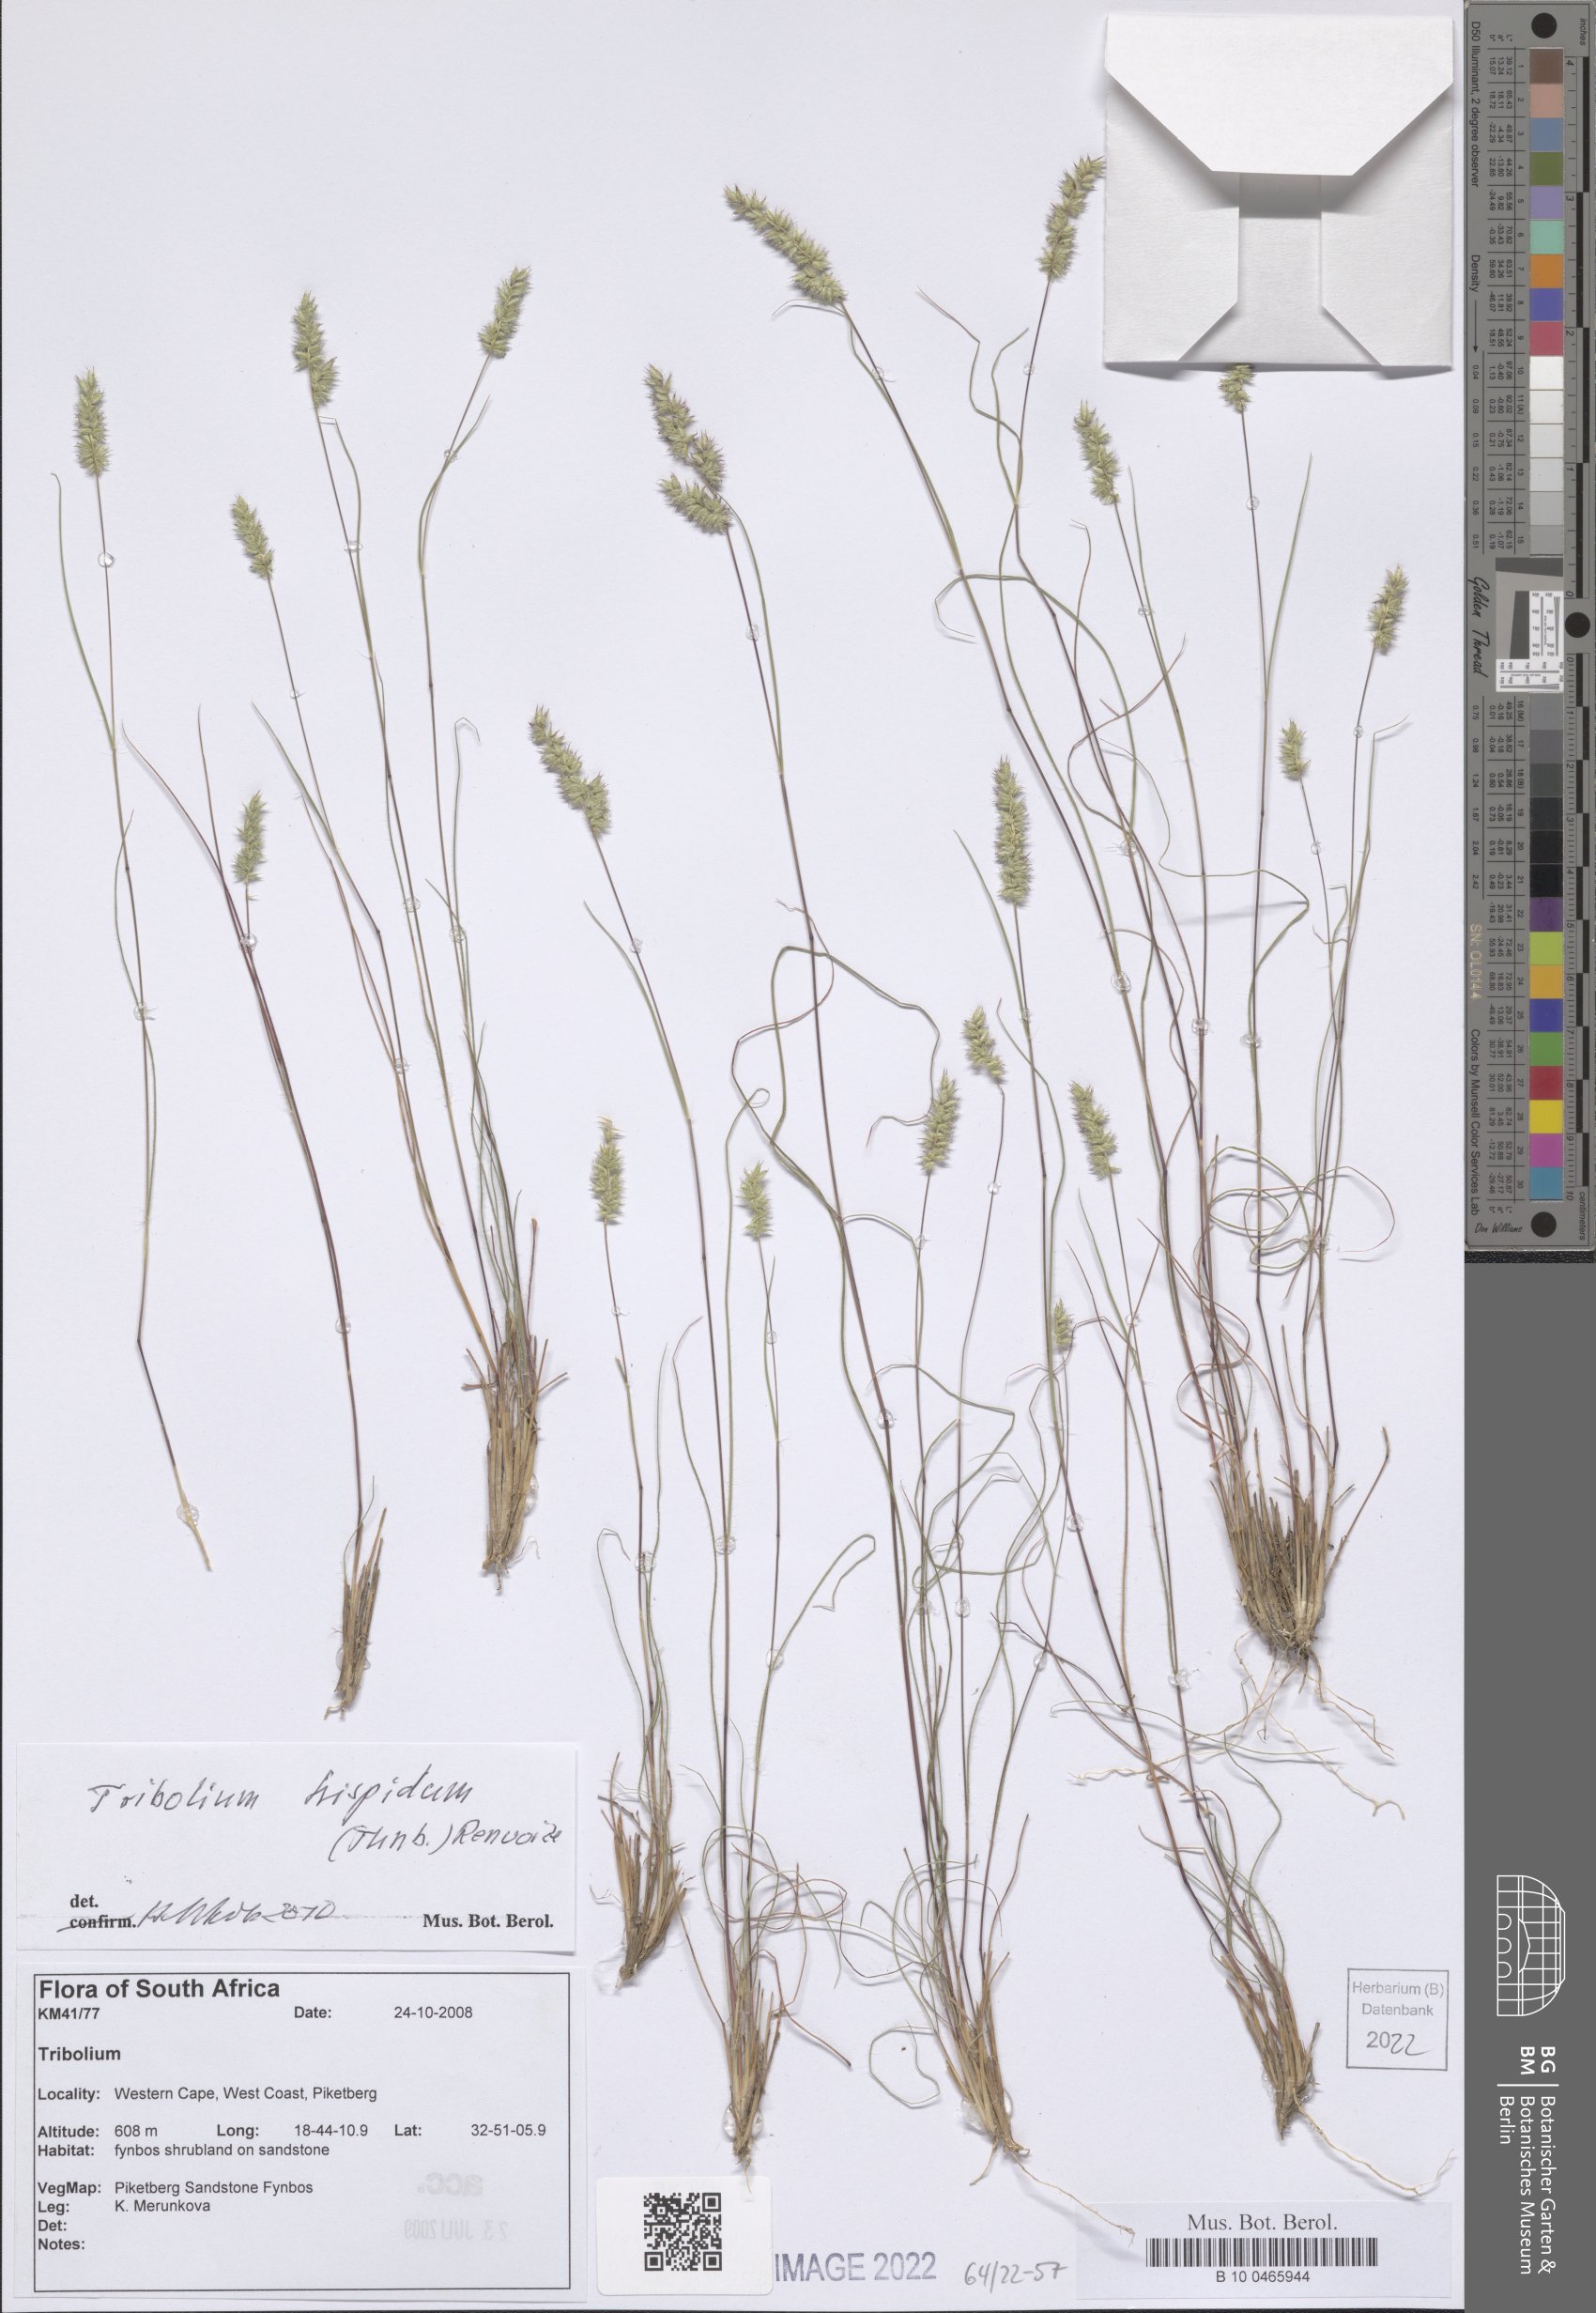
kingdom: Plantae
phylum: Tracheophyta
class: Liliopsida
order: Poales
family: Poaceae
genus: Tribolium
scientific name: Tribolium hispidum
